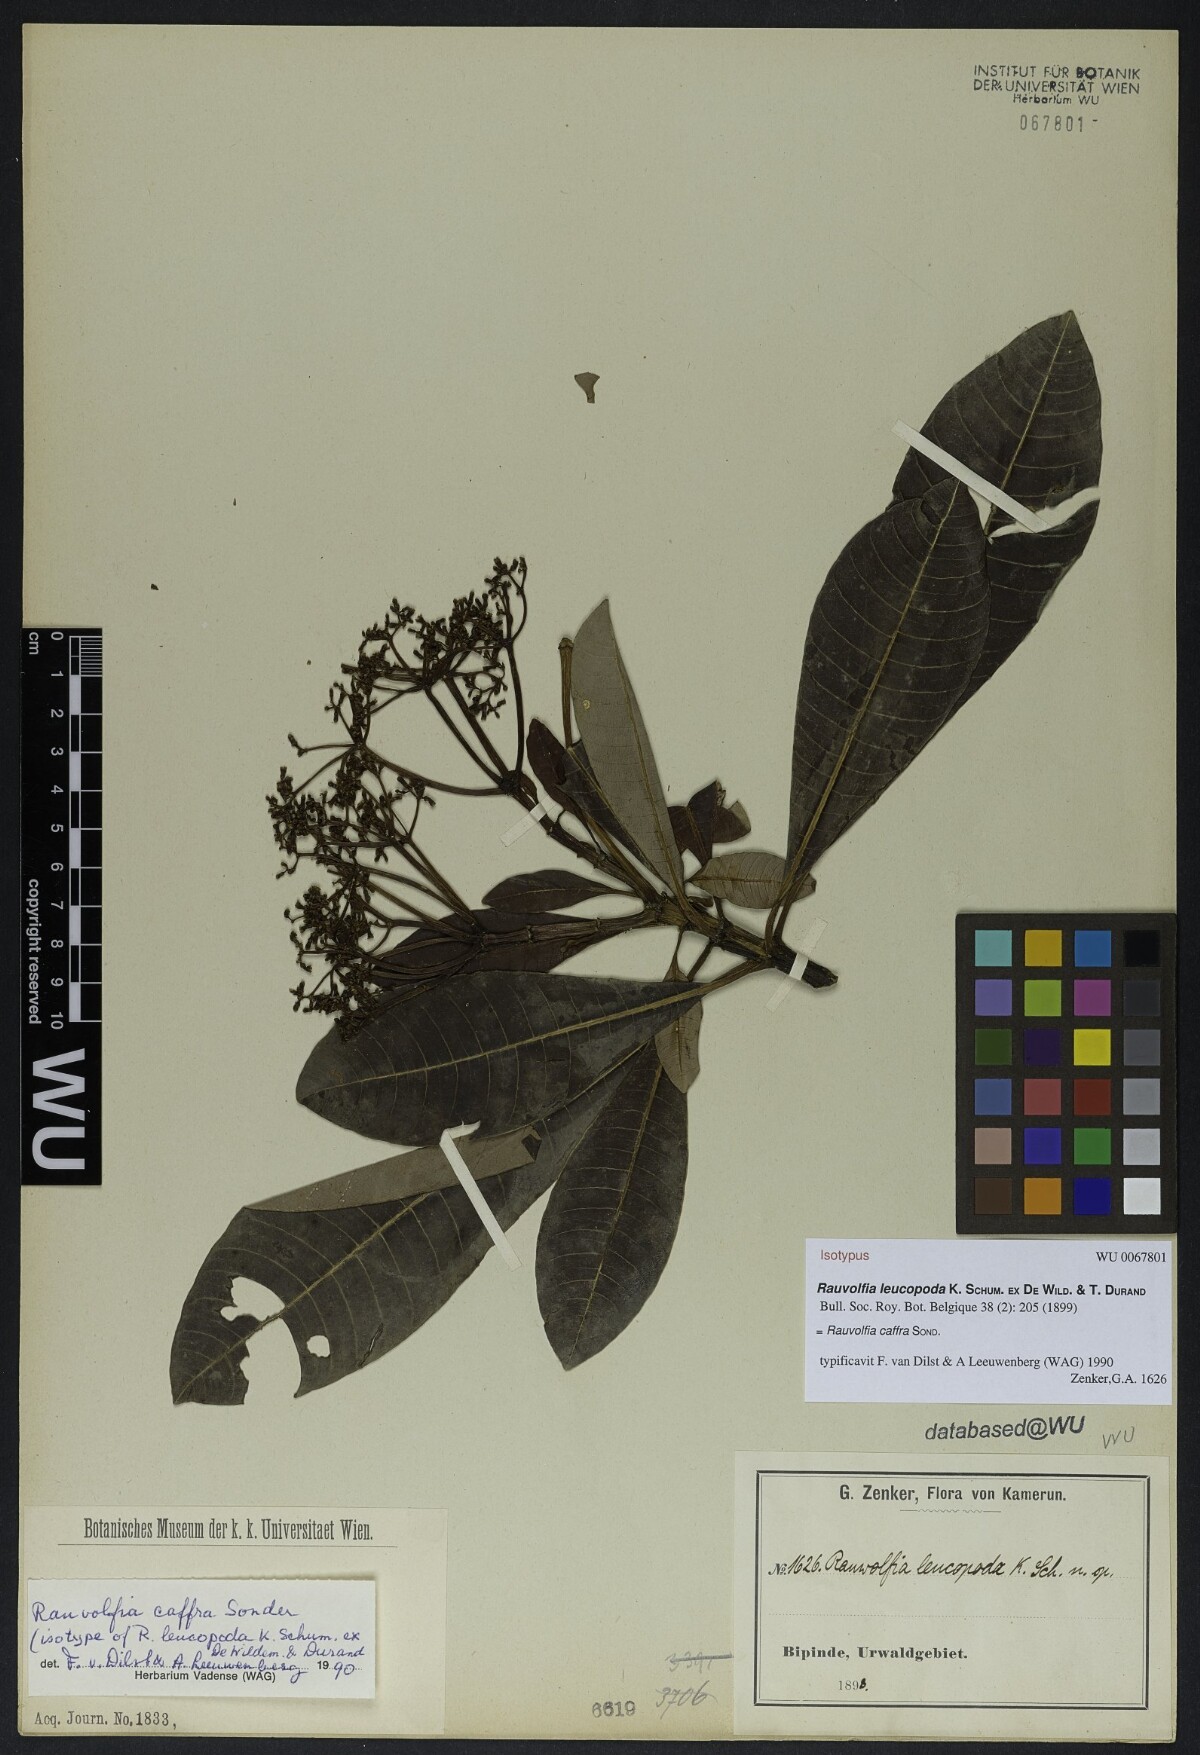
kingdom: Plantae
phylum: Tracheophyta
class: Magnoliopsida
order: Gentianales
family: Apocynaceae
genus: Rauvolfia
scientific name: Rauvolfia leucopoda
